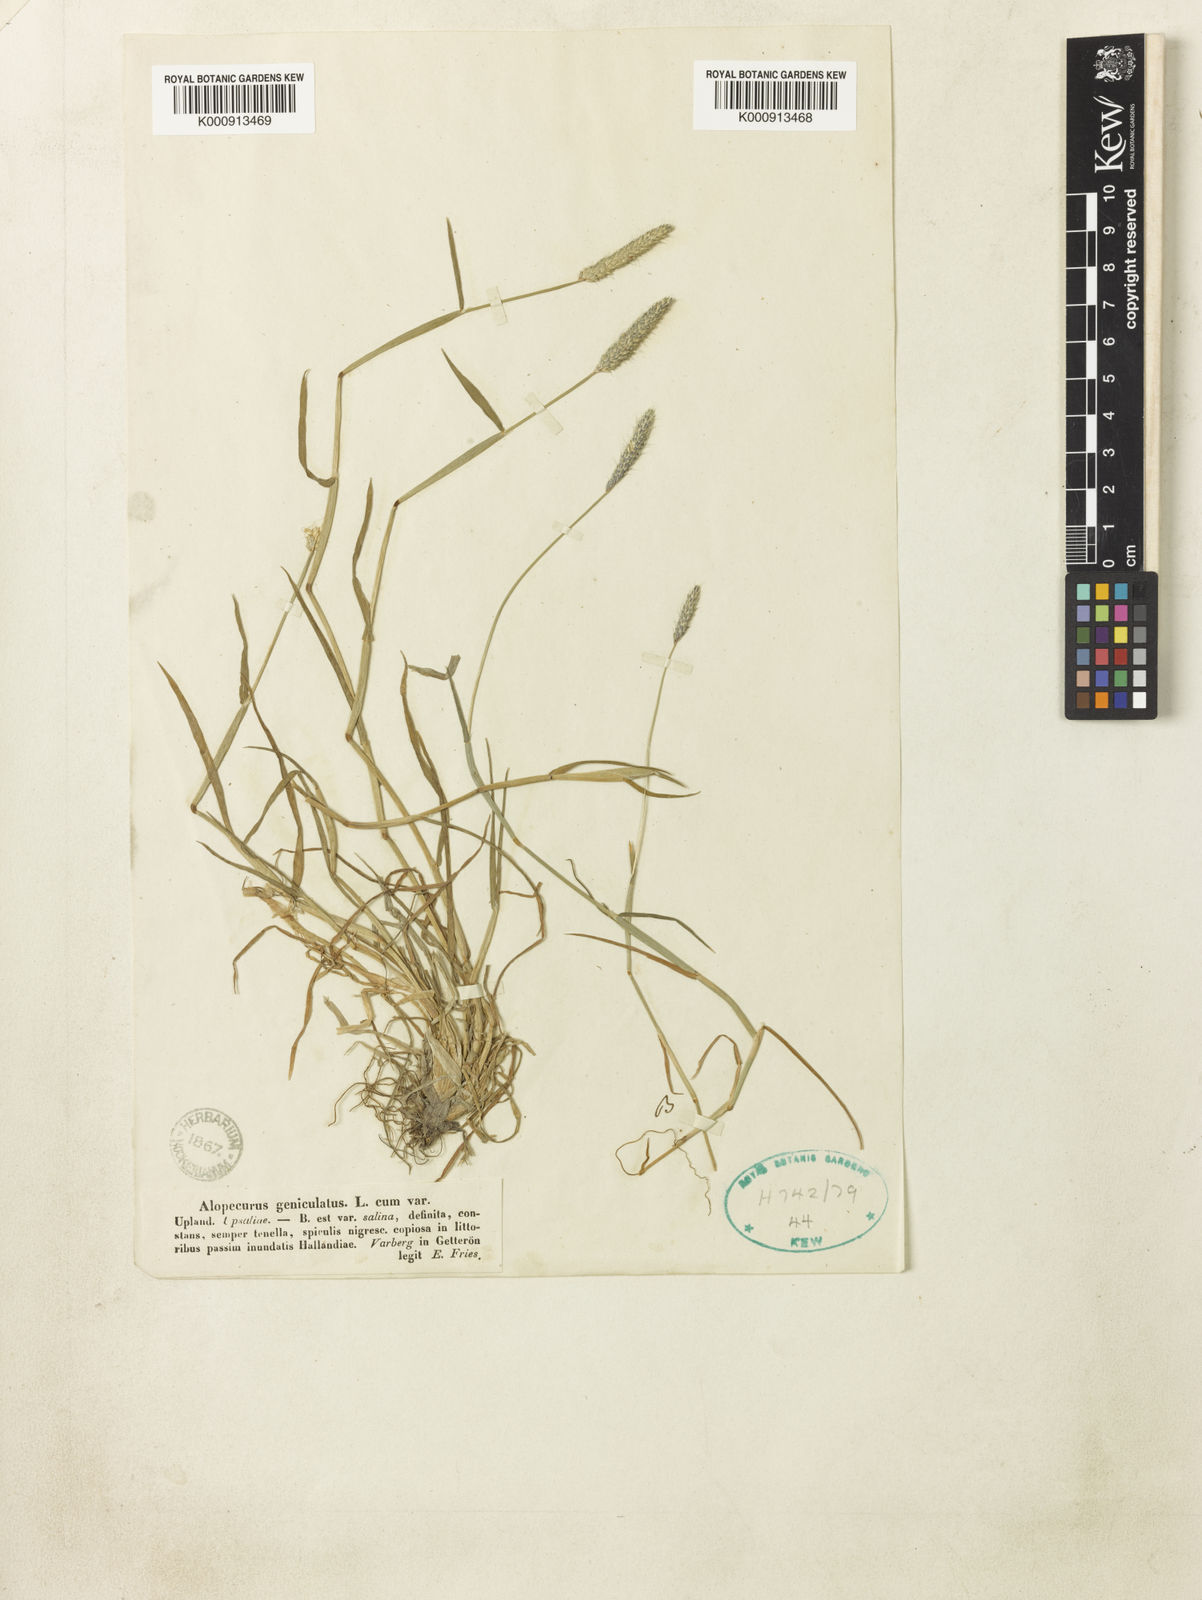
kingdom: Plantae
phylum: Tracheophyta
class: Liliopsida
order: Poales
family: Poaceae
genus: Alopecurus
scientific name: Alopecurus geniculatus
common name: Water foxtail
